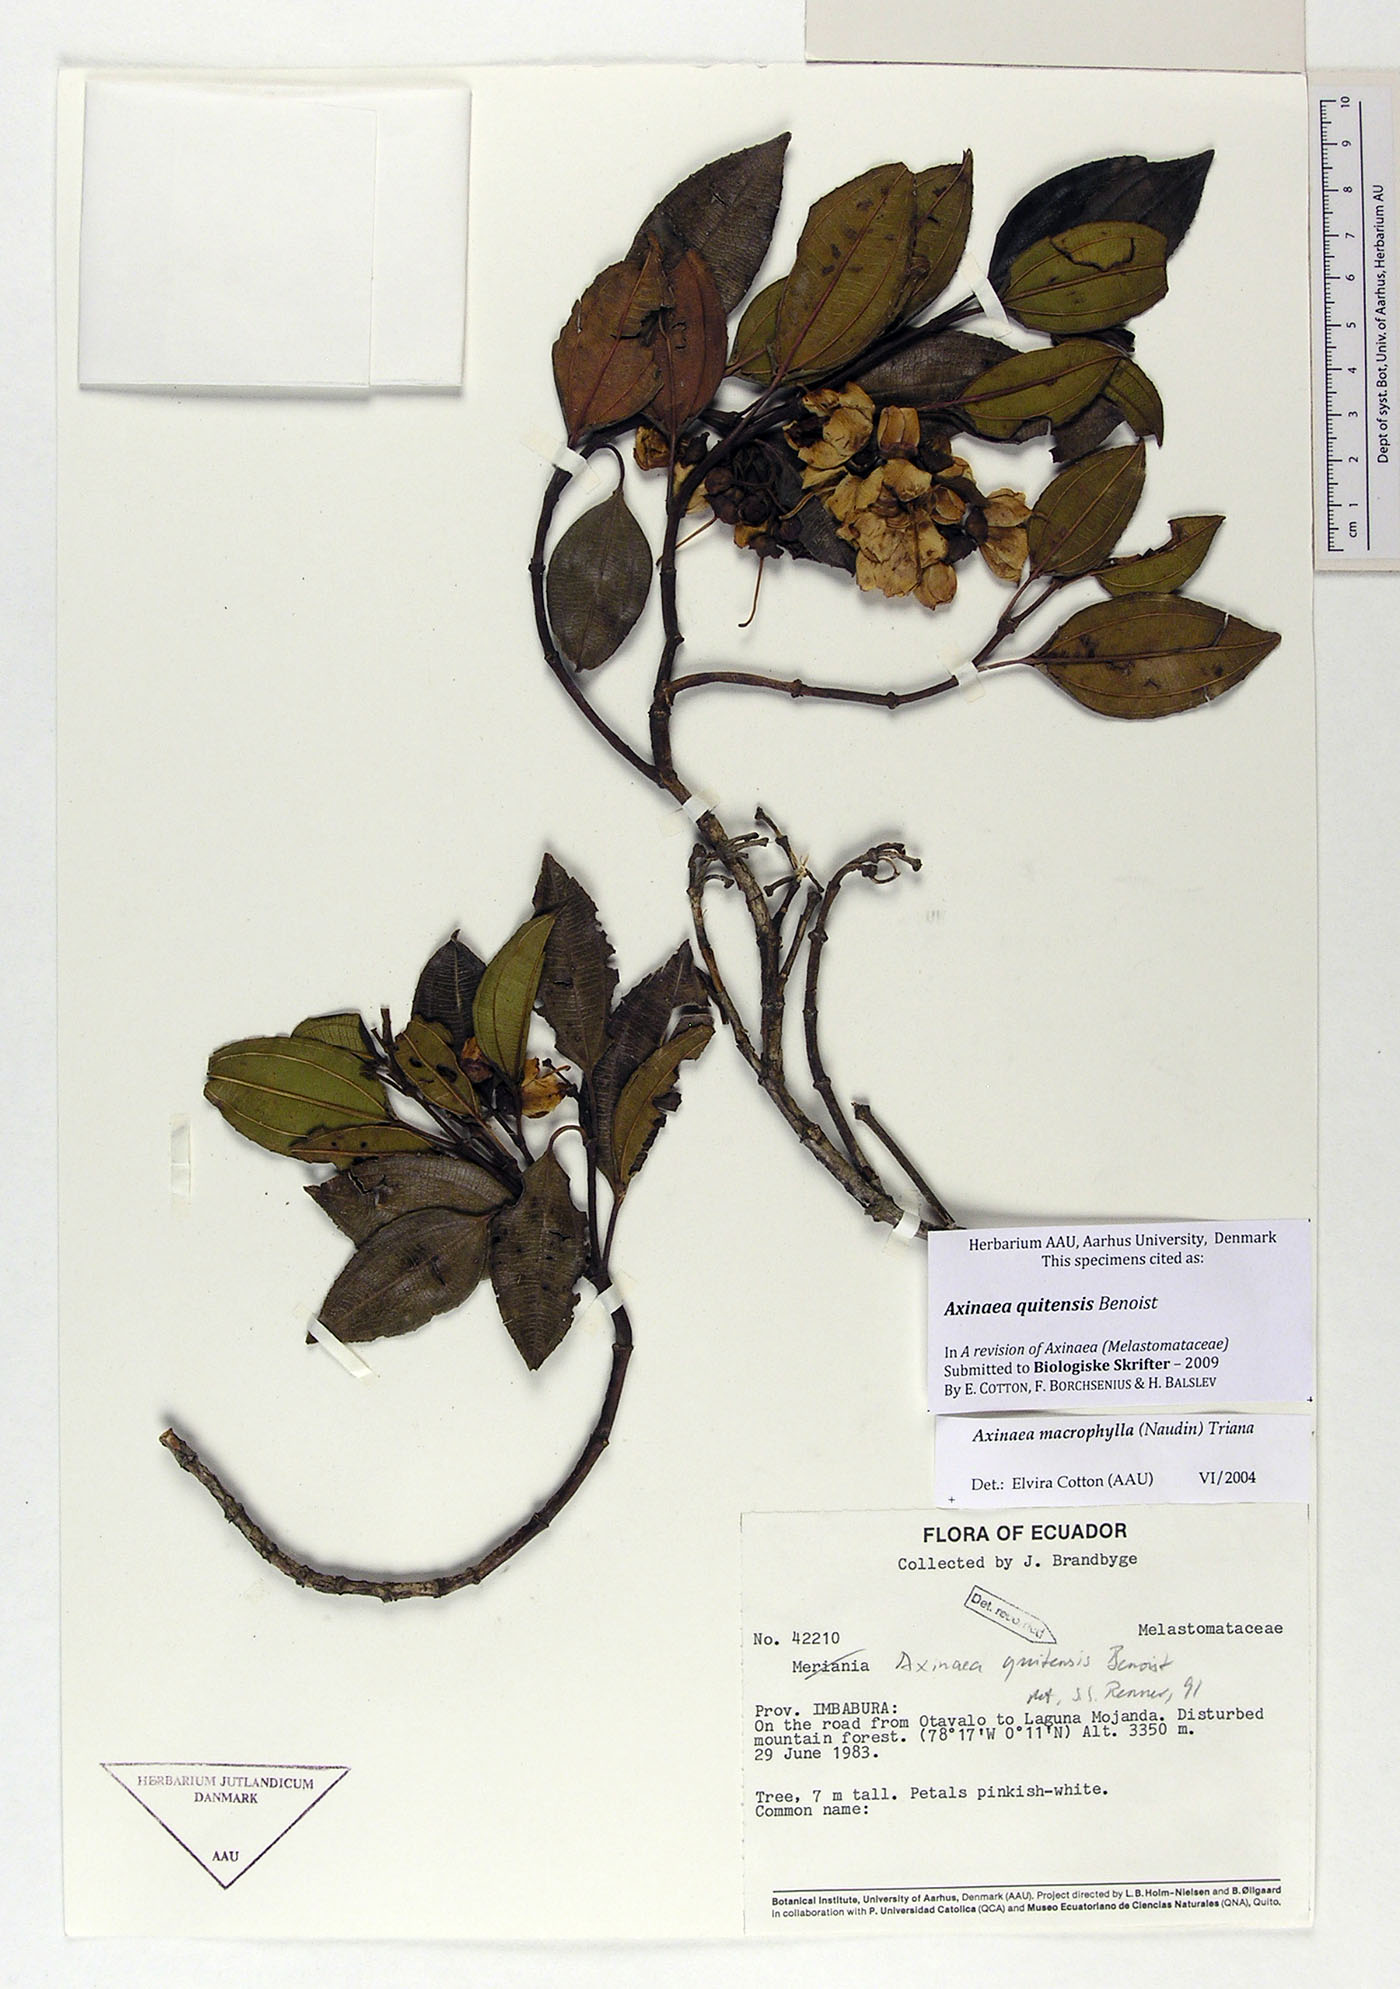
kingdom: Plantae
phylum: Tracheophyta
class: Magnoliopsida
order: Myrtales
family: Melastomataceae
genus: Axinaea
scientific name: Axinaea quitensis
